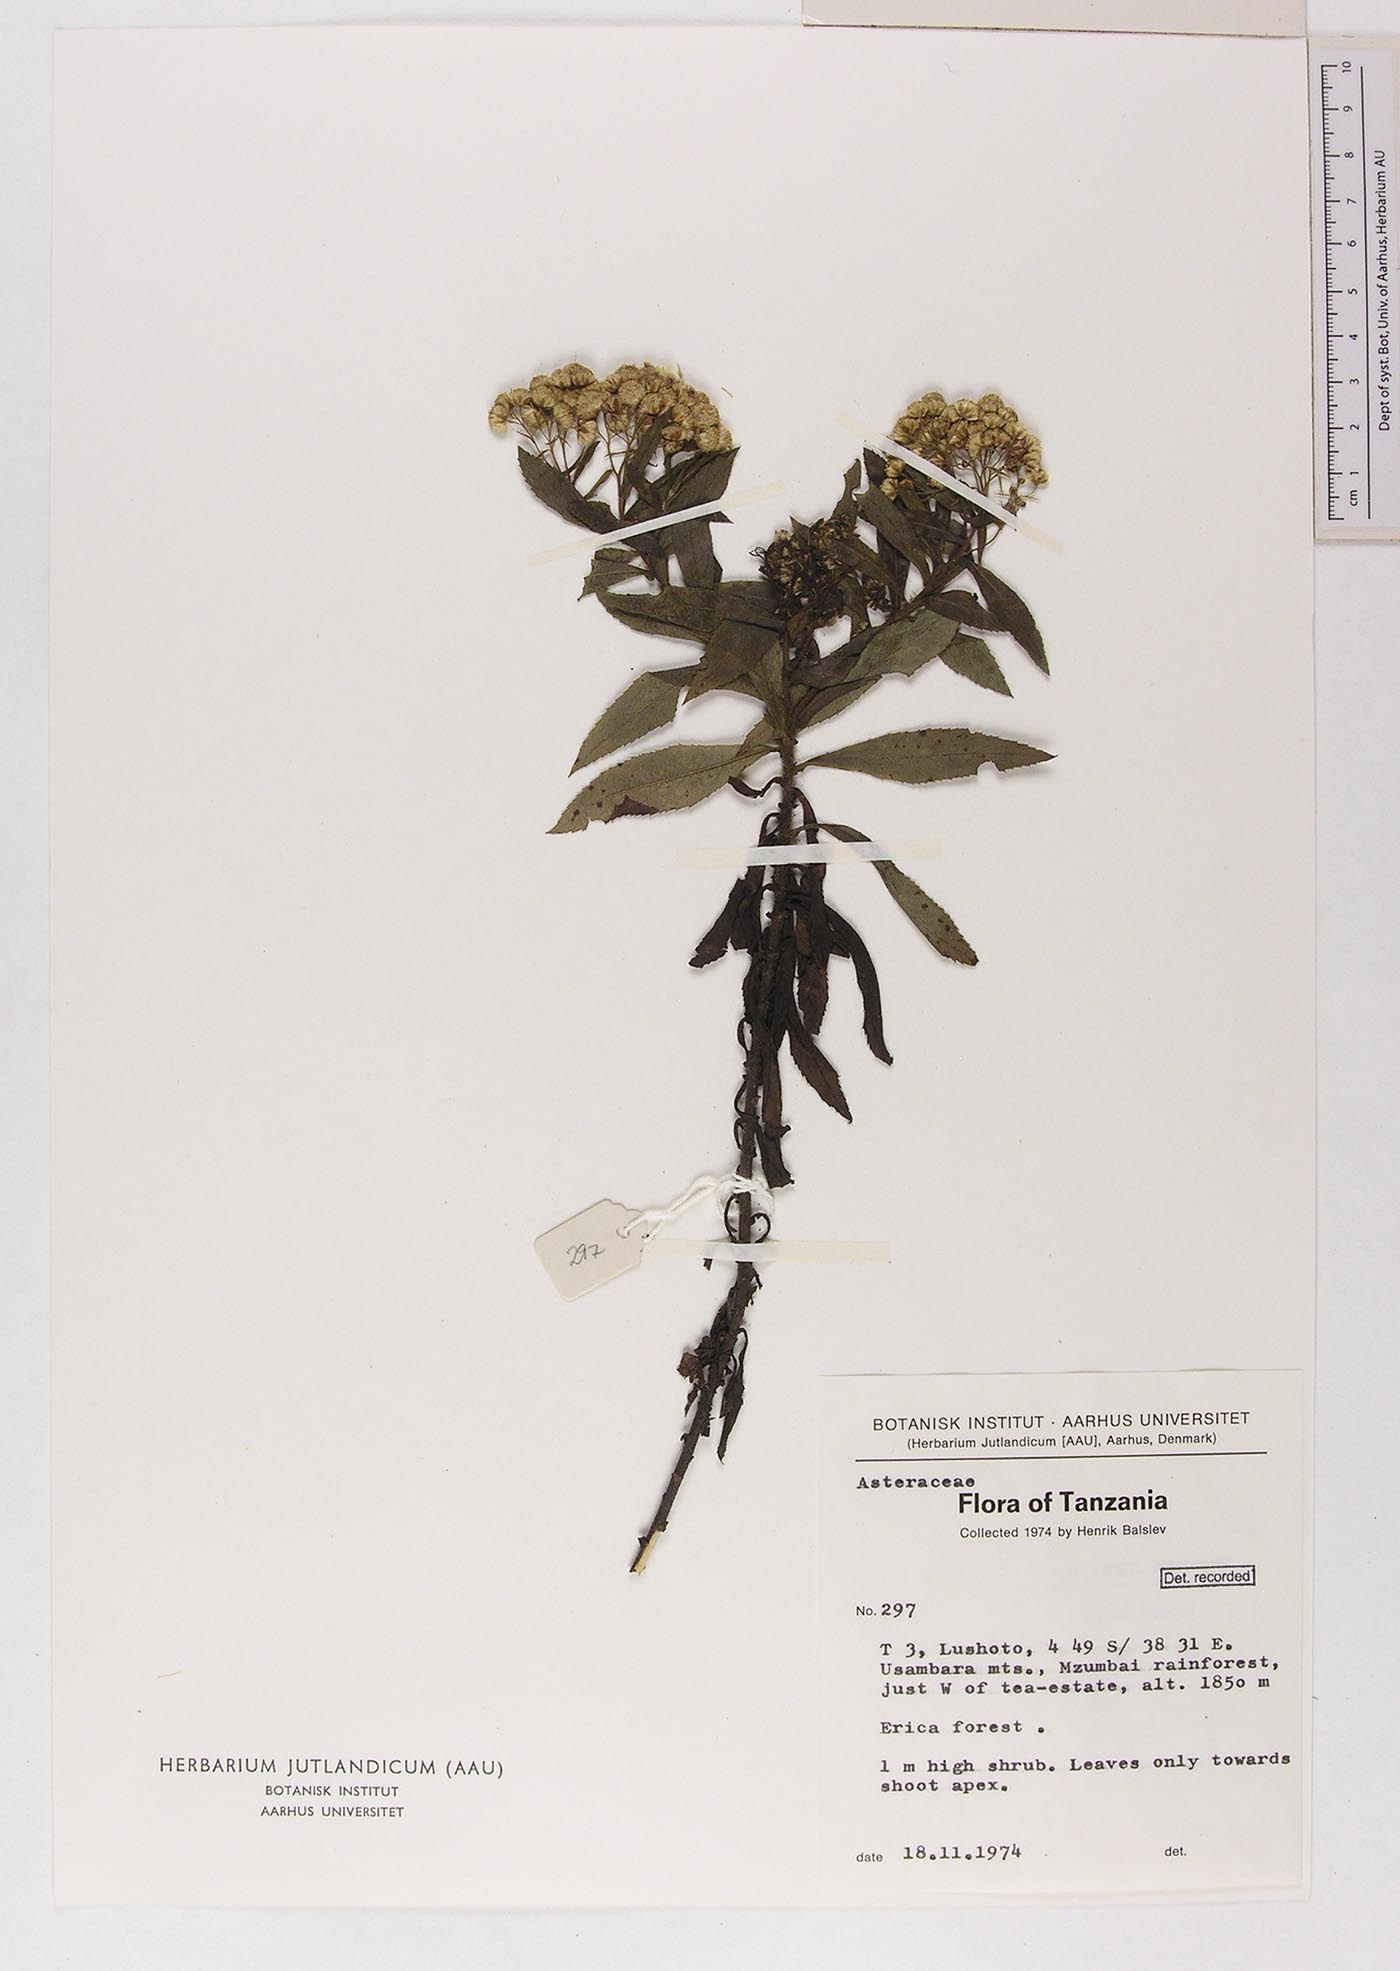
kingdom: Plantae
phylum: Tracheophyta
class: Magnoliopsida
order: Asterales
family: Asteraceae
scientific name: Asteraceae
